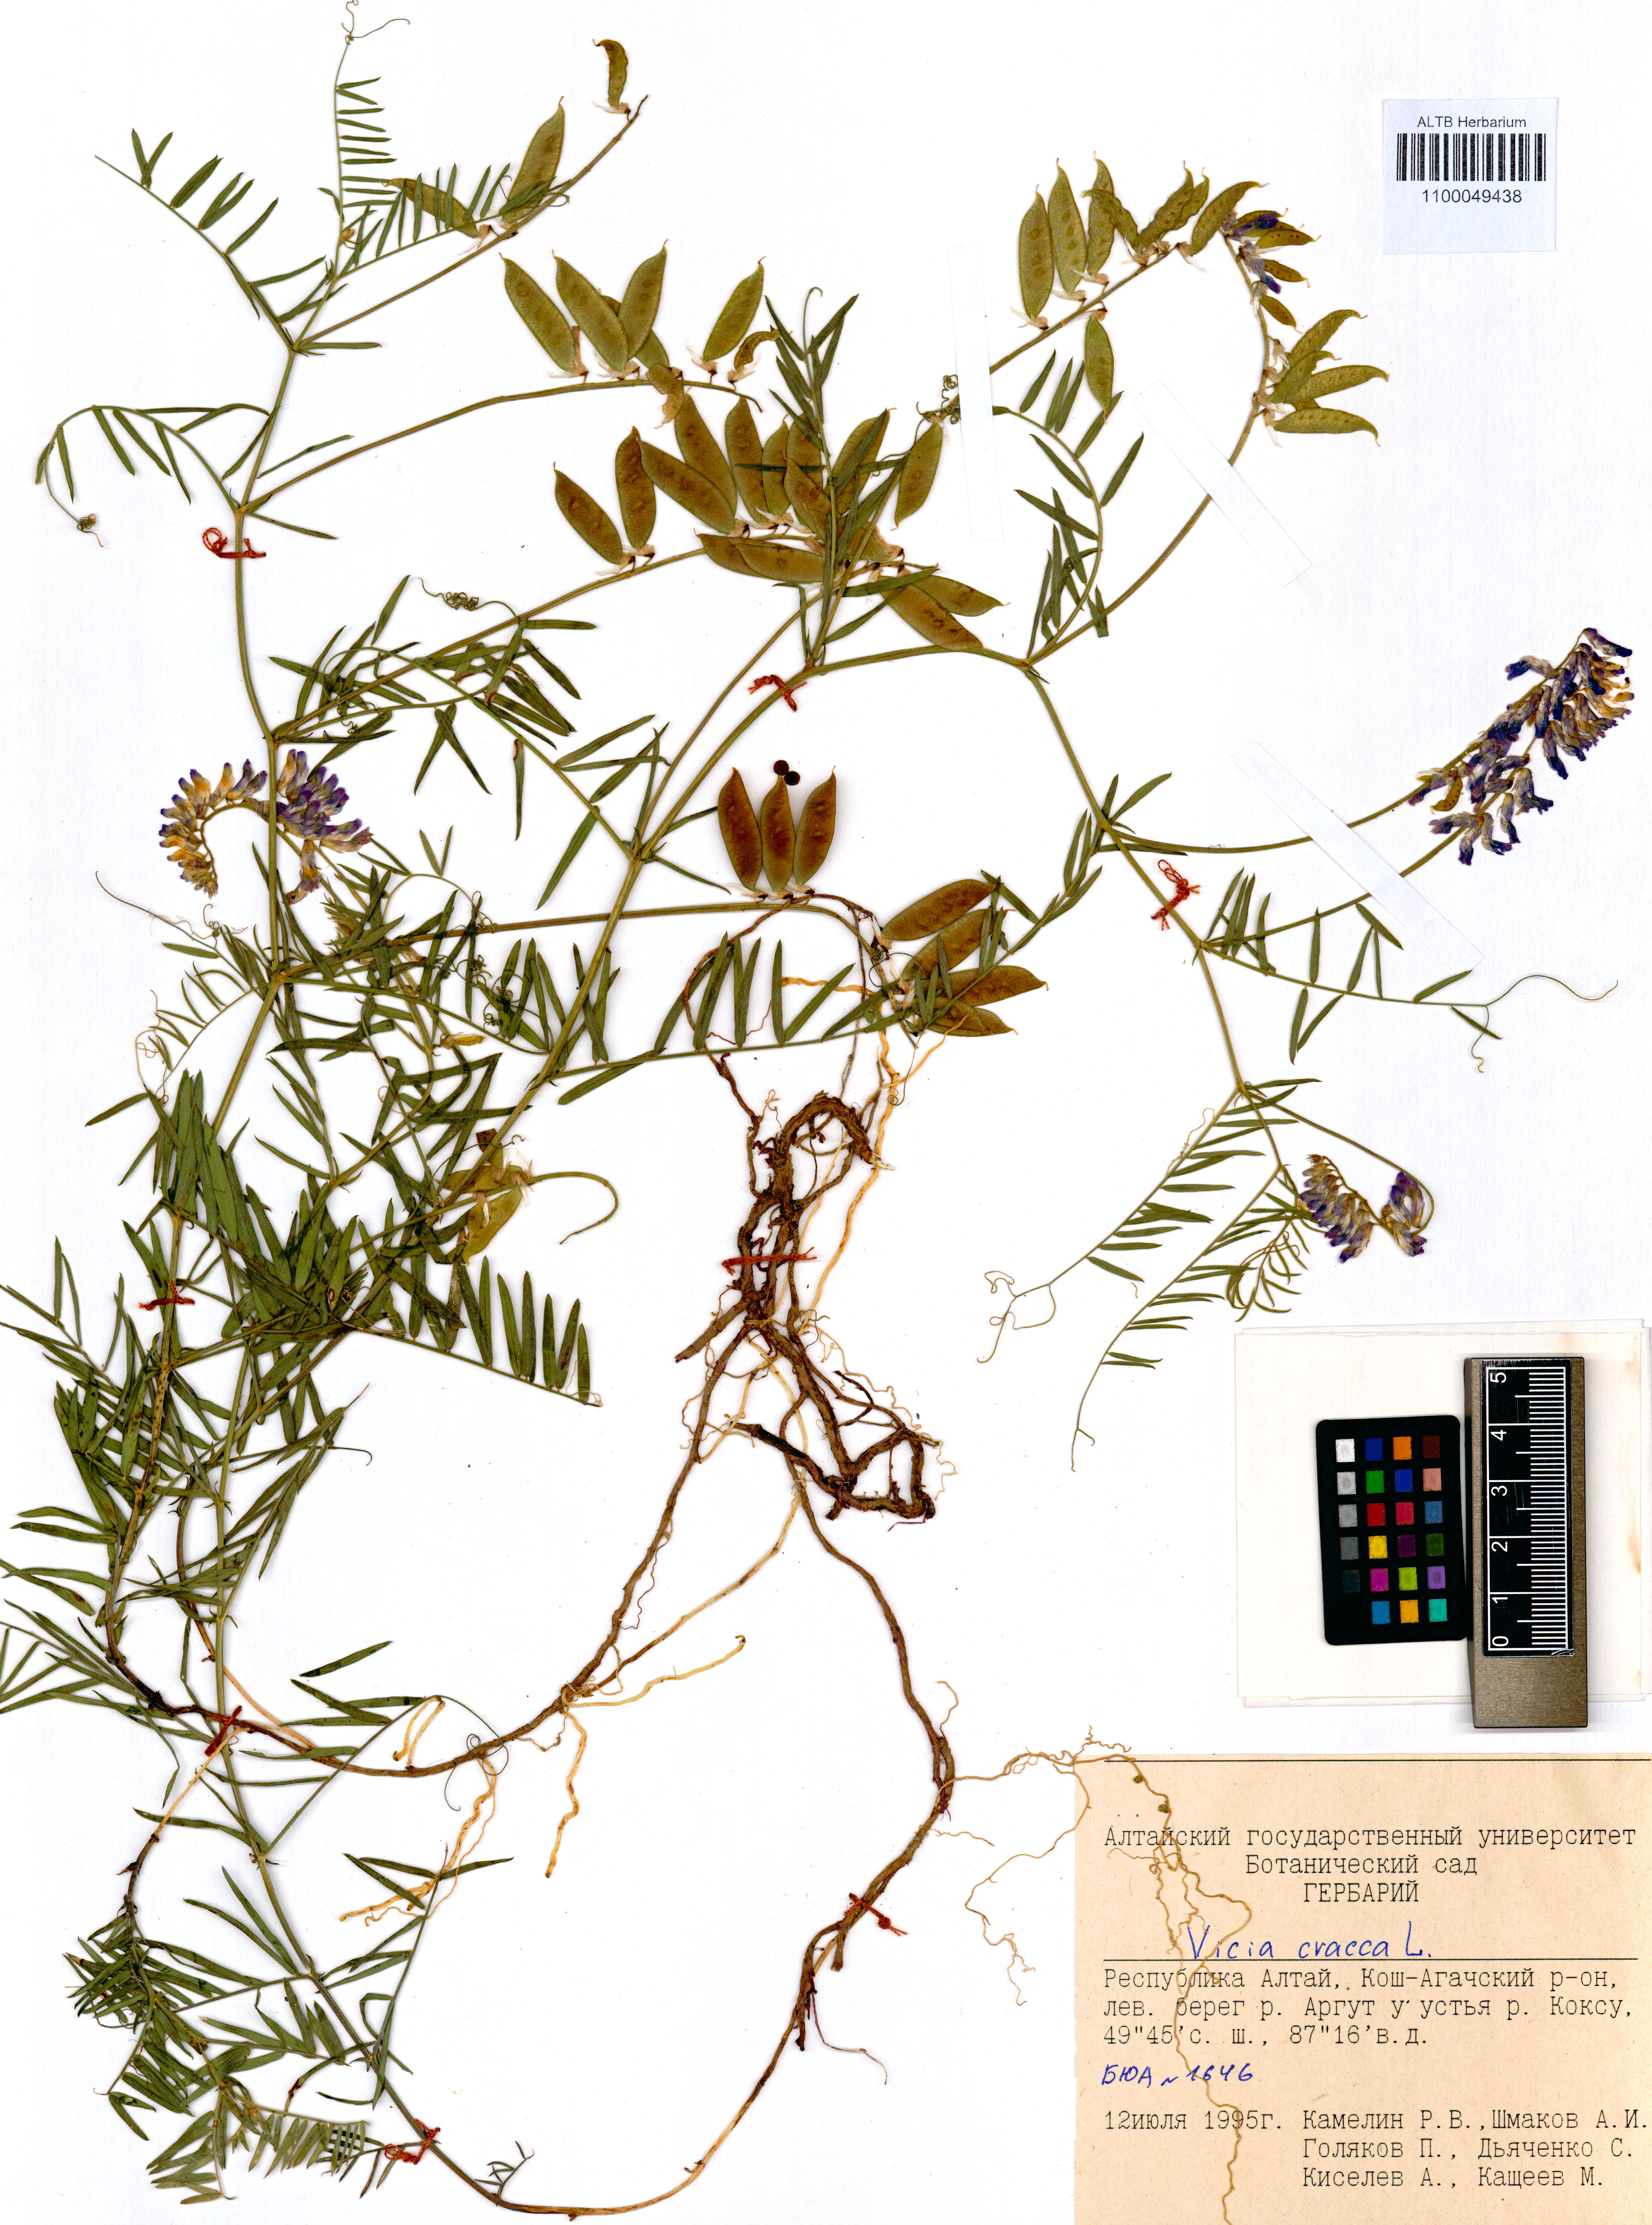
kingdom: Plantae
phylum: Tracheophyta
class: Magnoliopsida
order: Fabales
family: Fabaceae
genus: Vicia
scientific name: Vicia cracca
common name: Bird vetch
